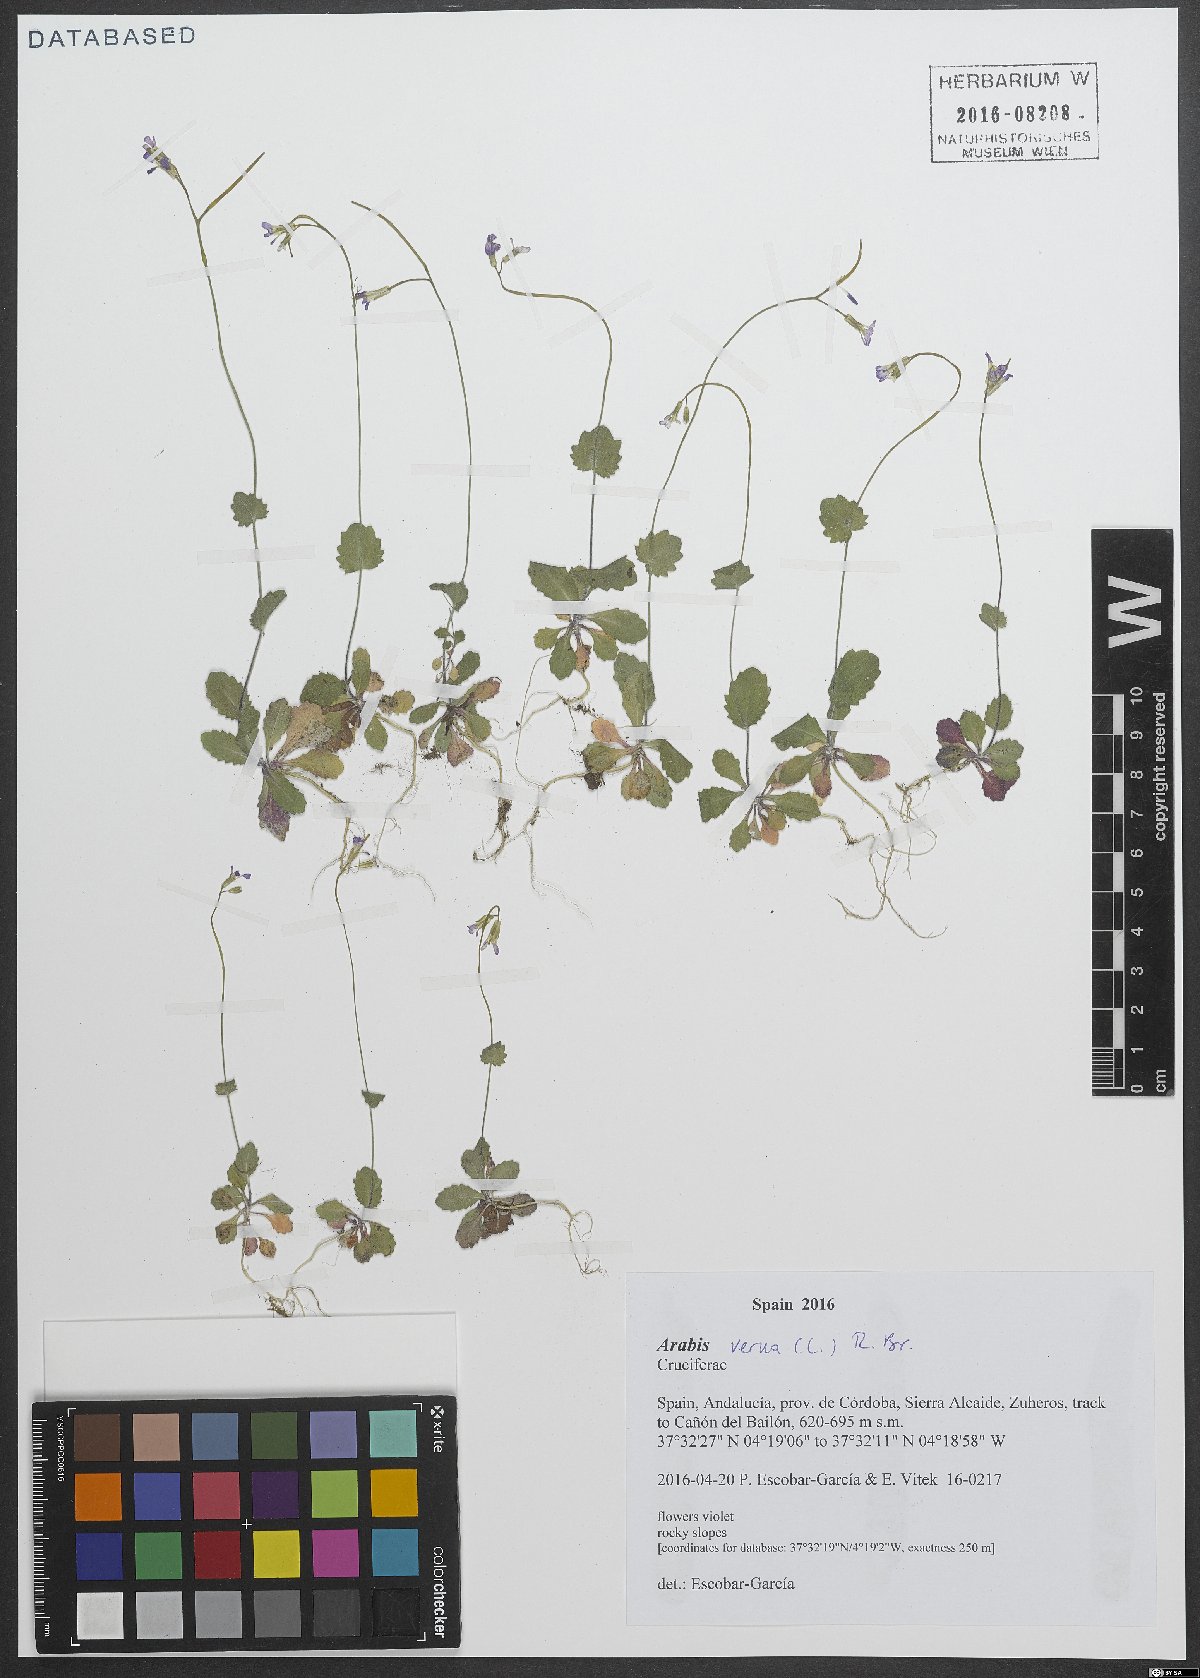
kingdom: Plantae
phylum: Tracheophyta
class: Magnoliopsida
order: Brassicales
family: Brassicaceae
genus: Arabis
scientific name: Arabis verna
